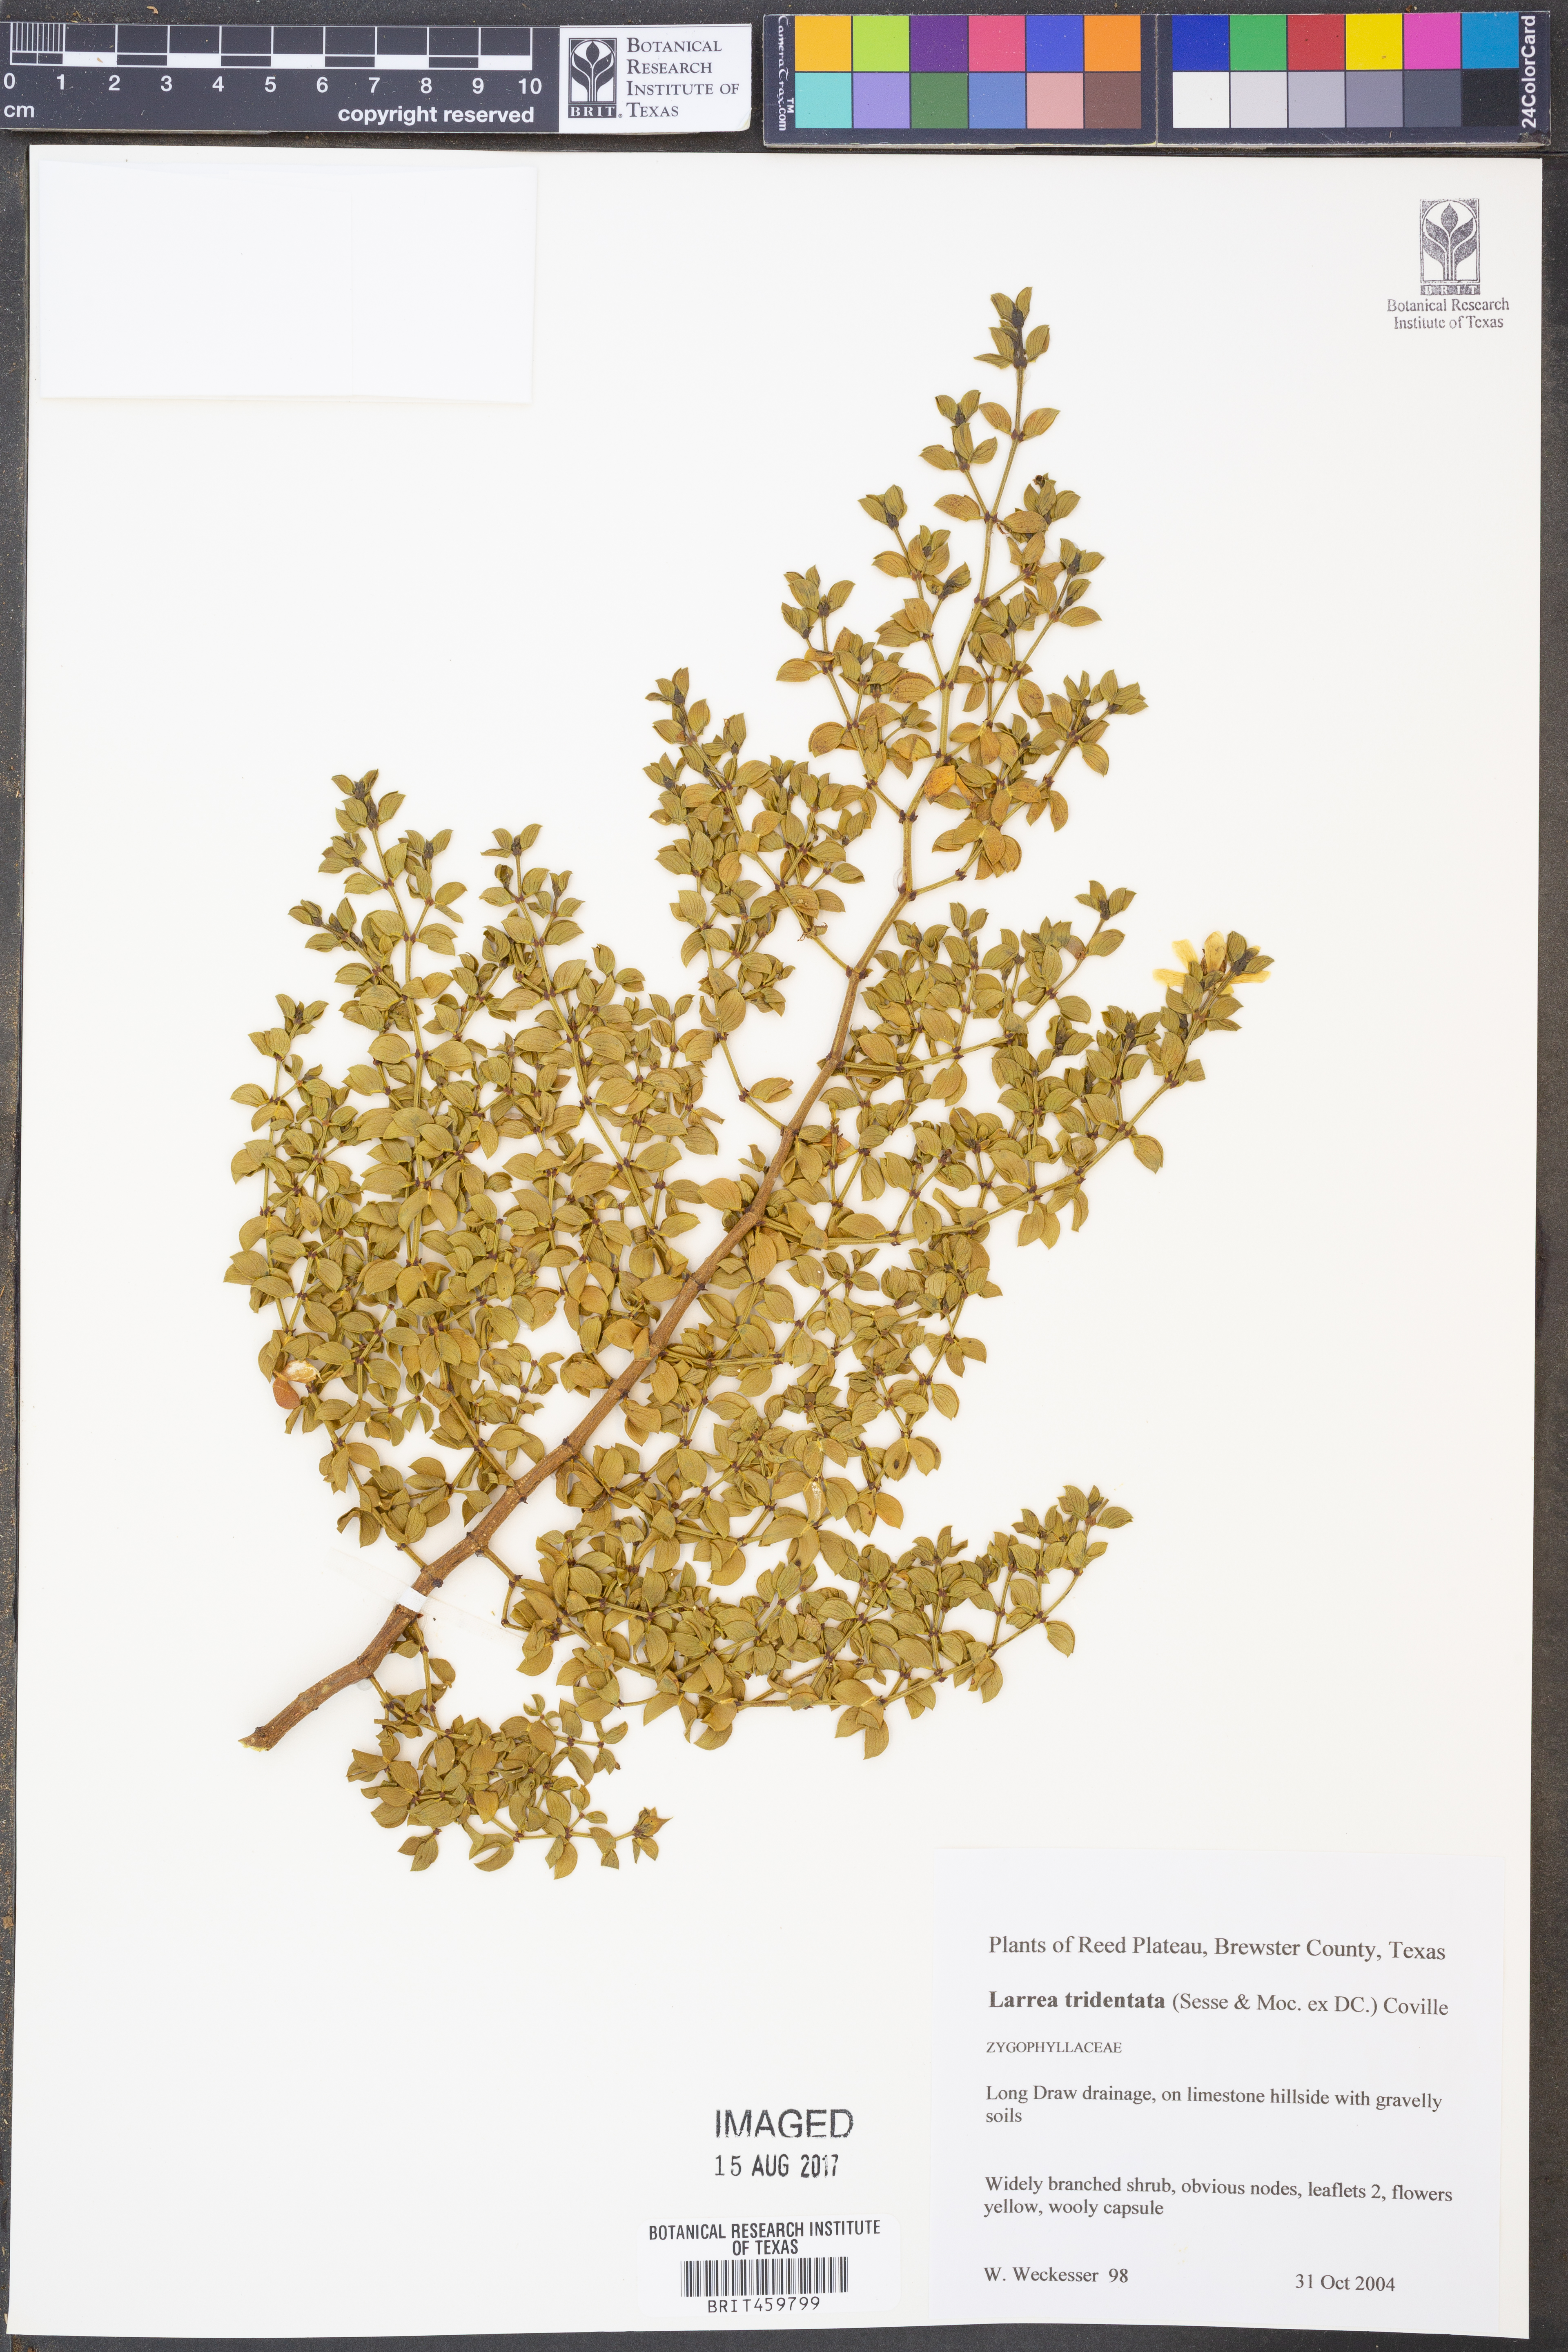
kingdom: Plantae
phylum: Tracheophyta
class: Magnoliopsida
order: Zygophyllales
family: Zygophyllaceae
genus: Larrea
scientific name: Larrea tridentata
